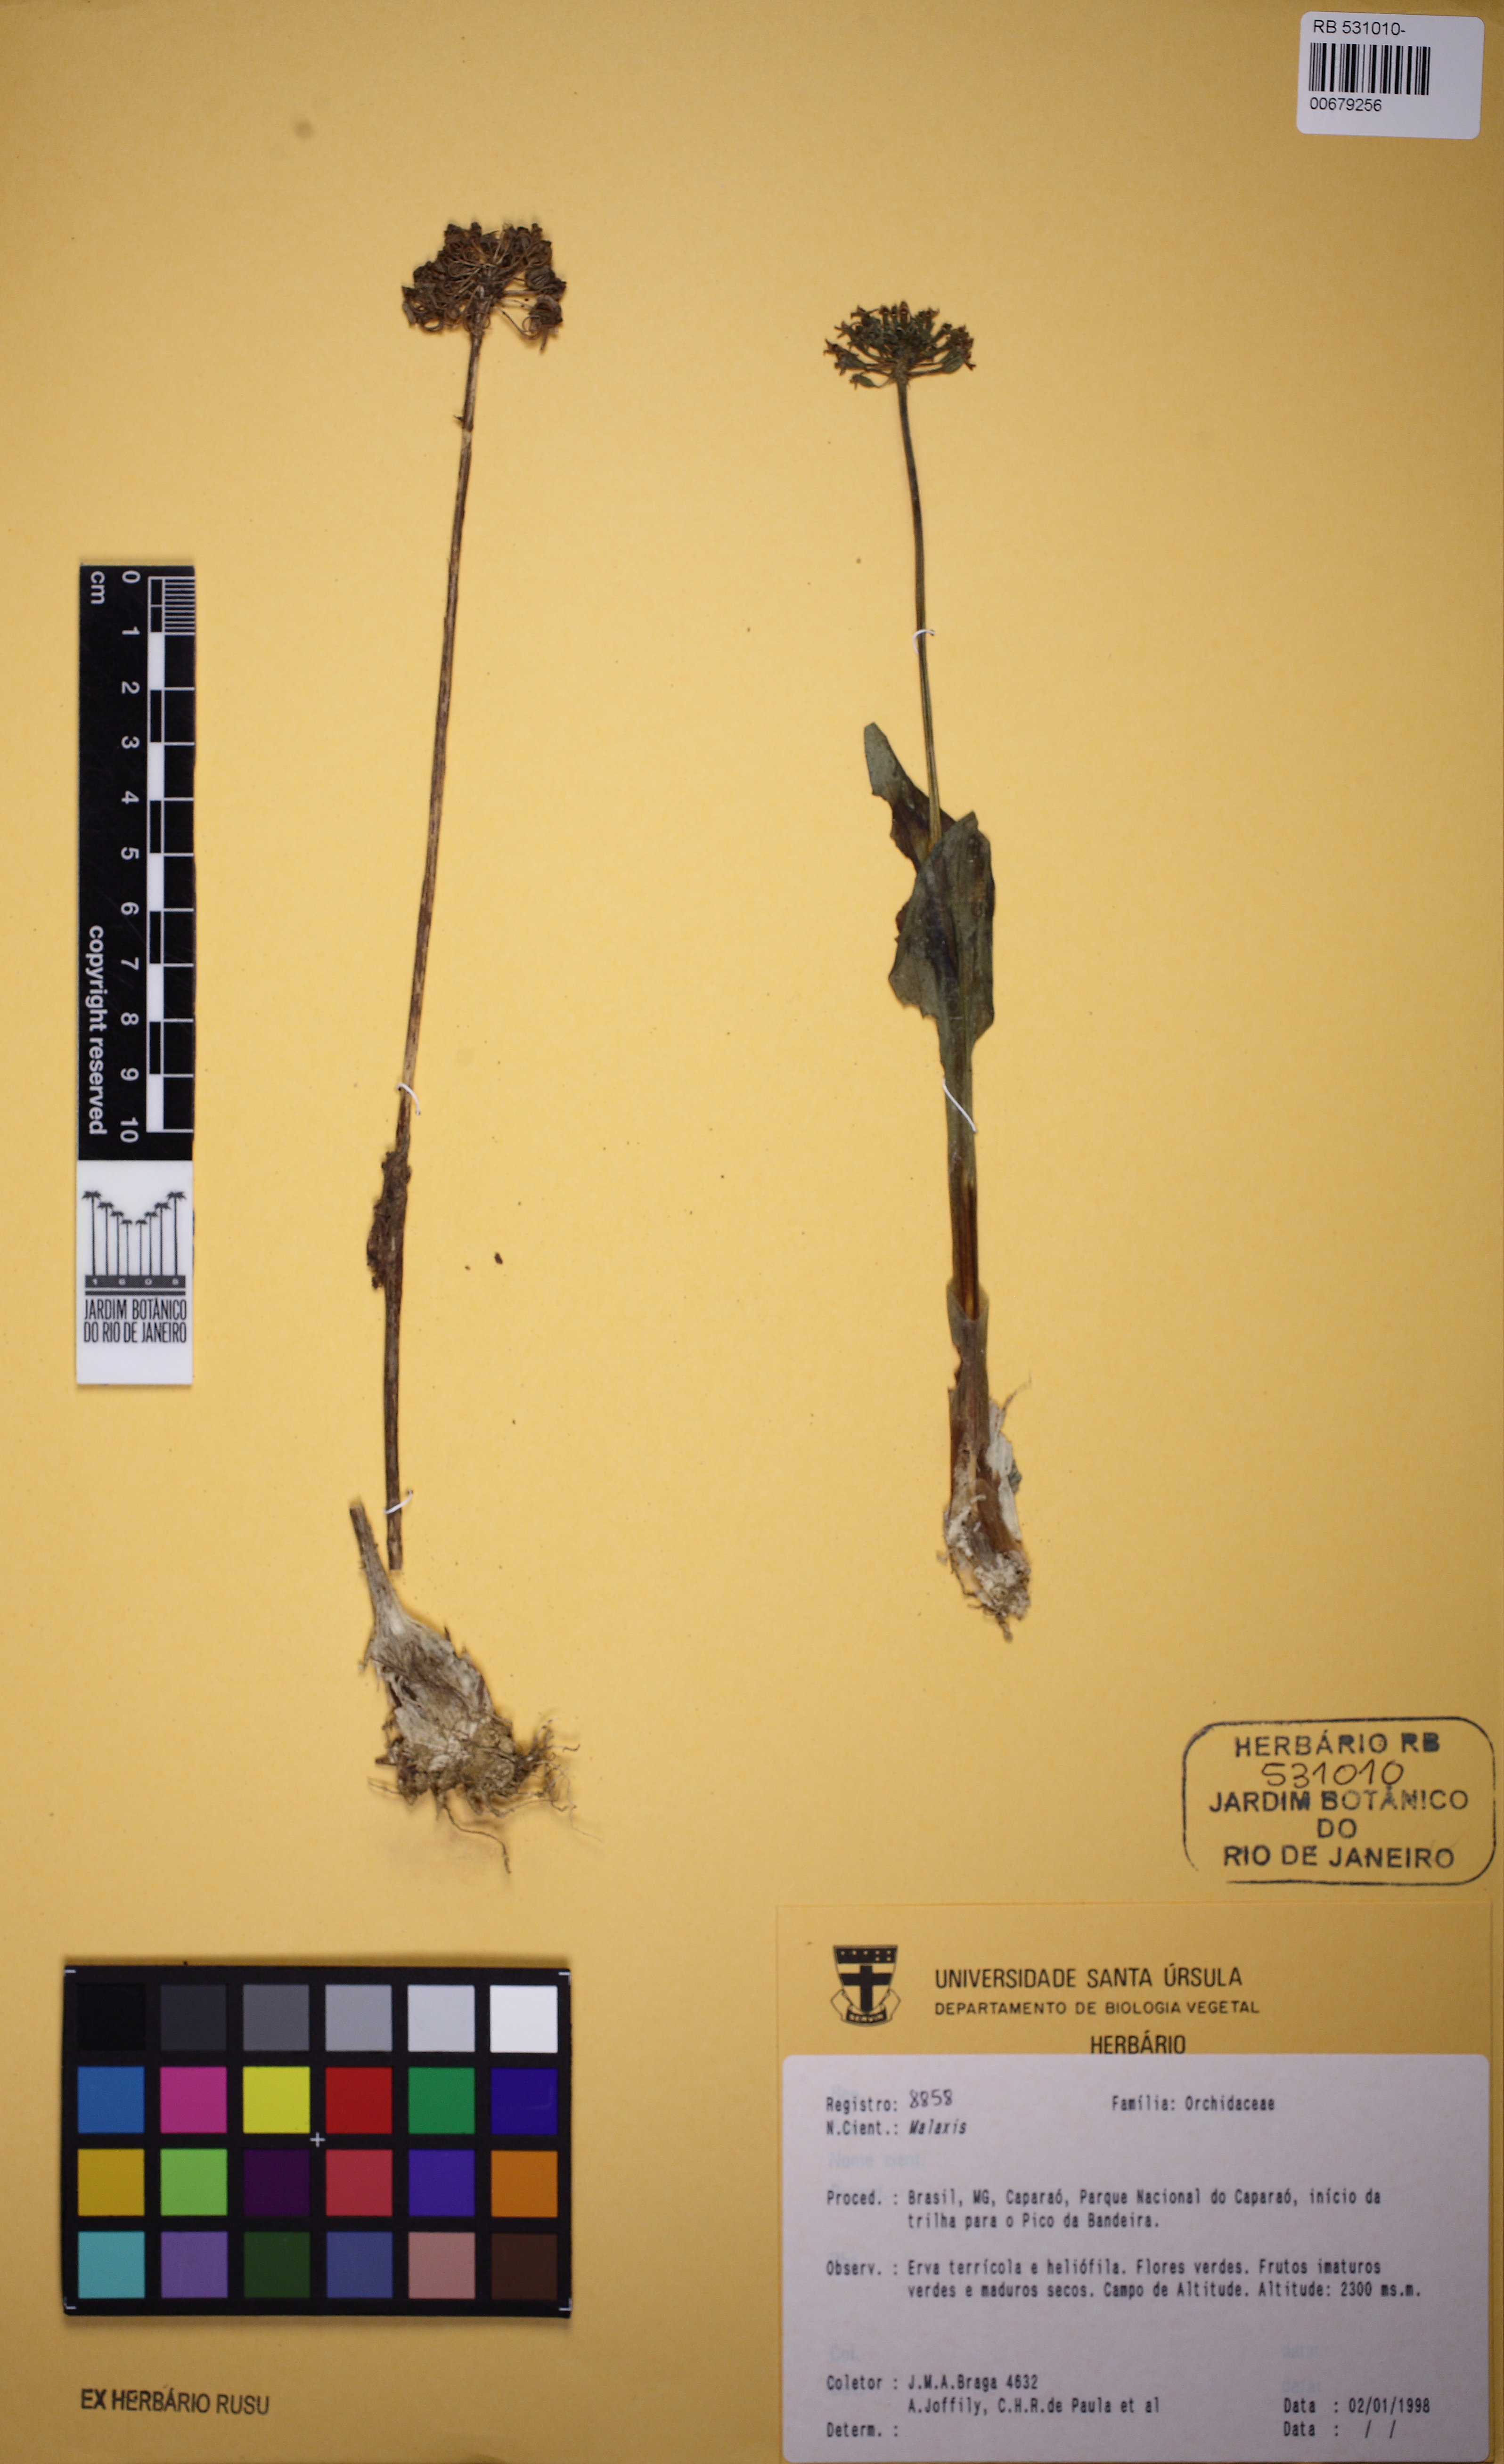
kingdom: Plantae
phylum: Tracheophyta
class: Liliopsida
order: Asparagales
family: Orchidaceae
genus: Malaxis
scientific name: Malaxis
